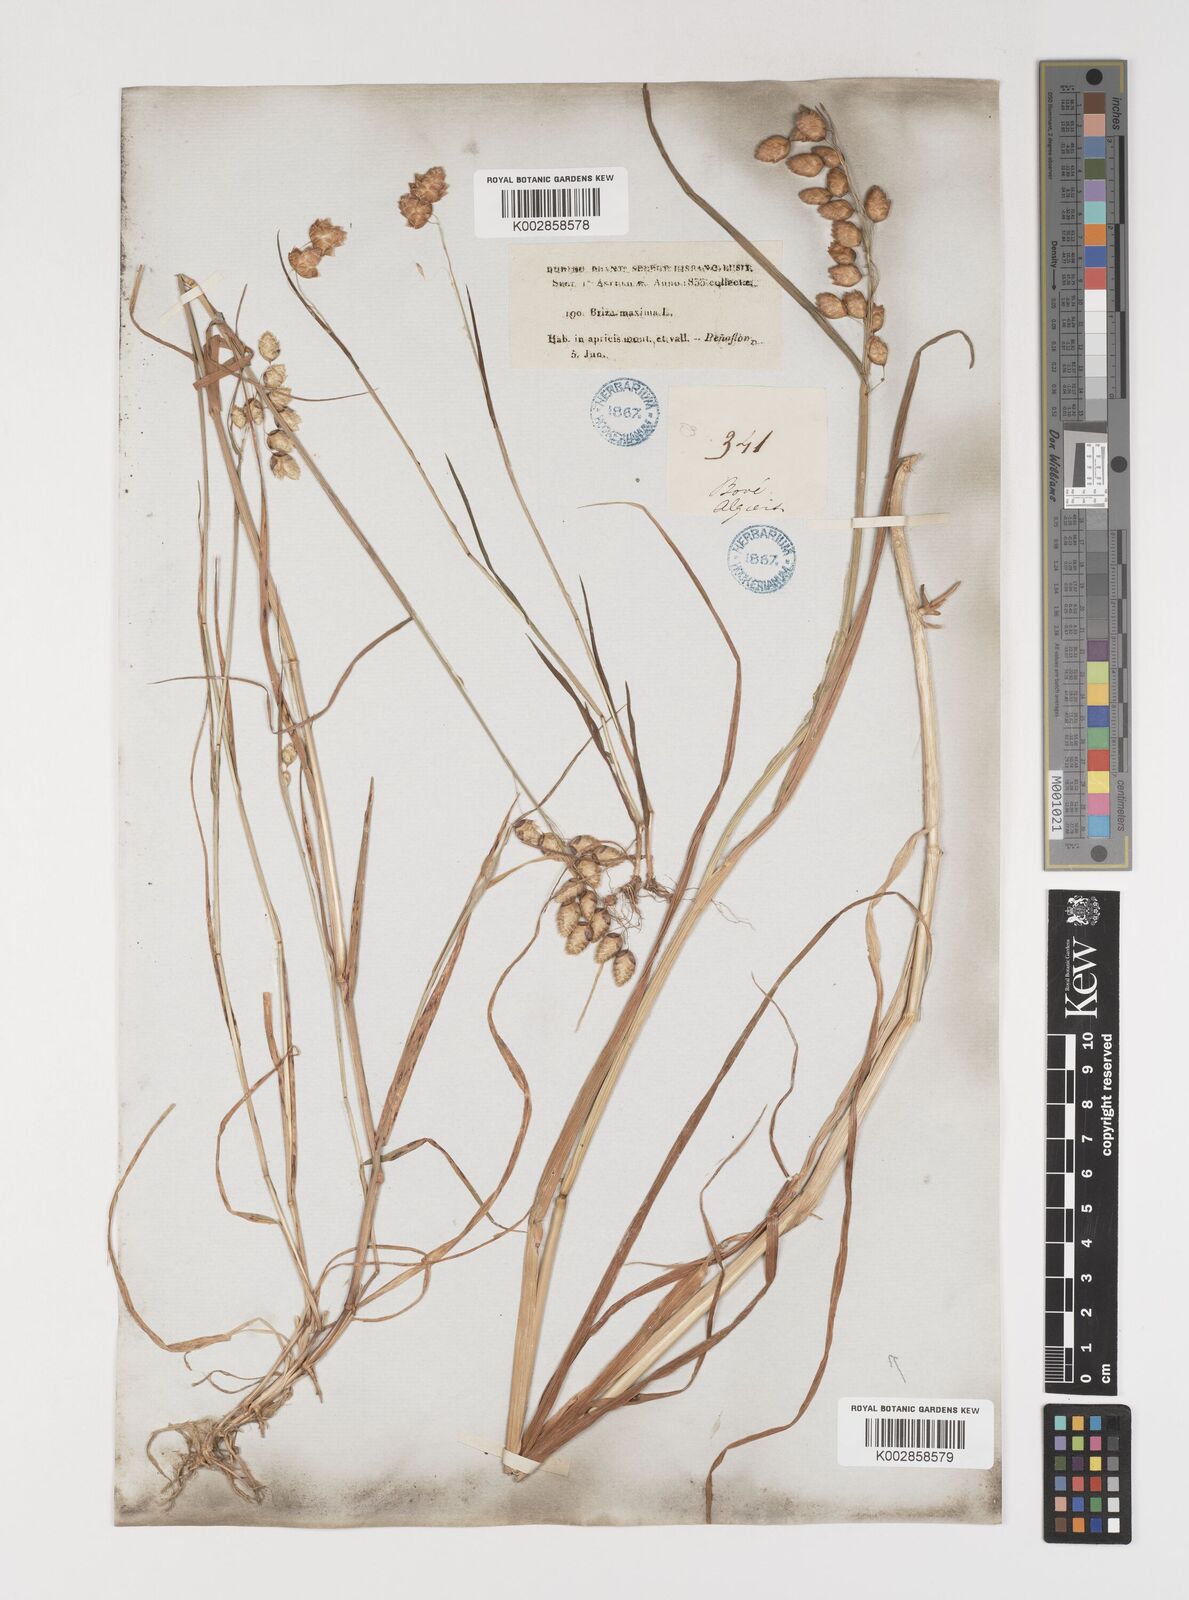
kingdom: Plantae
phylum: Tracheophyta
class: Liliopsida
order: Poales
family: Poaceae
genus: Briza
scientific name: Briza maxima
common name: Big quakinggrass
